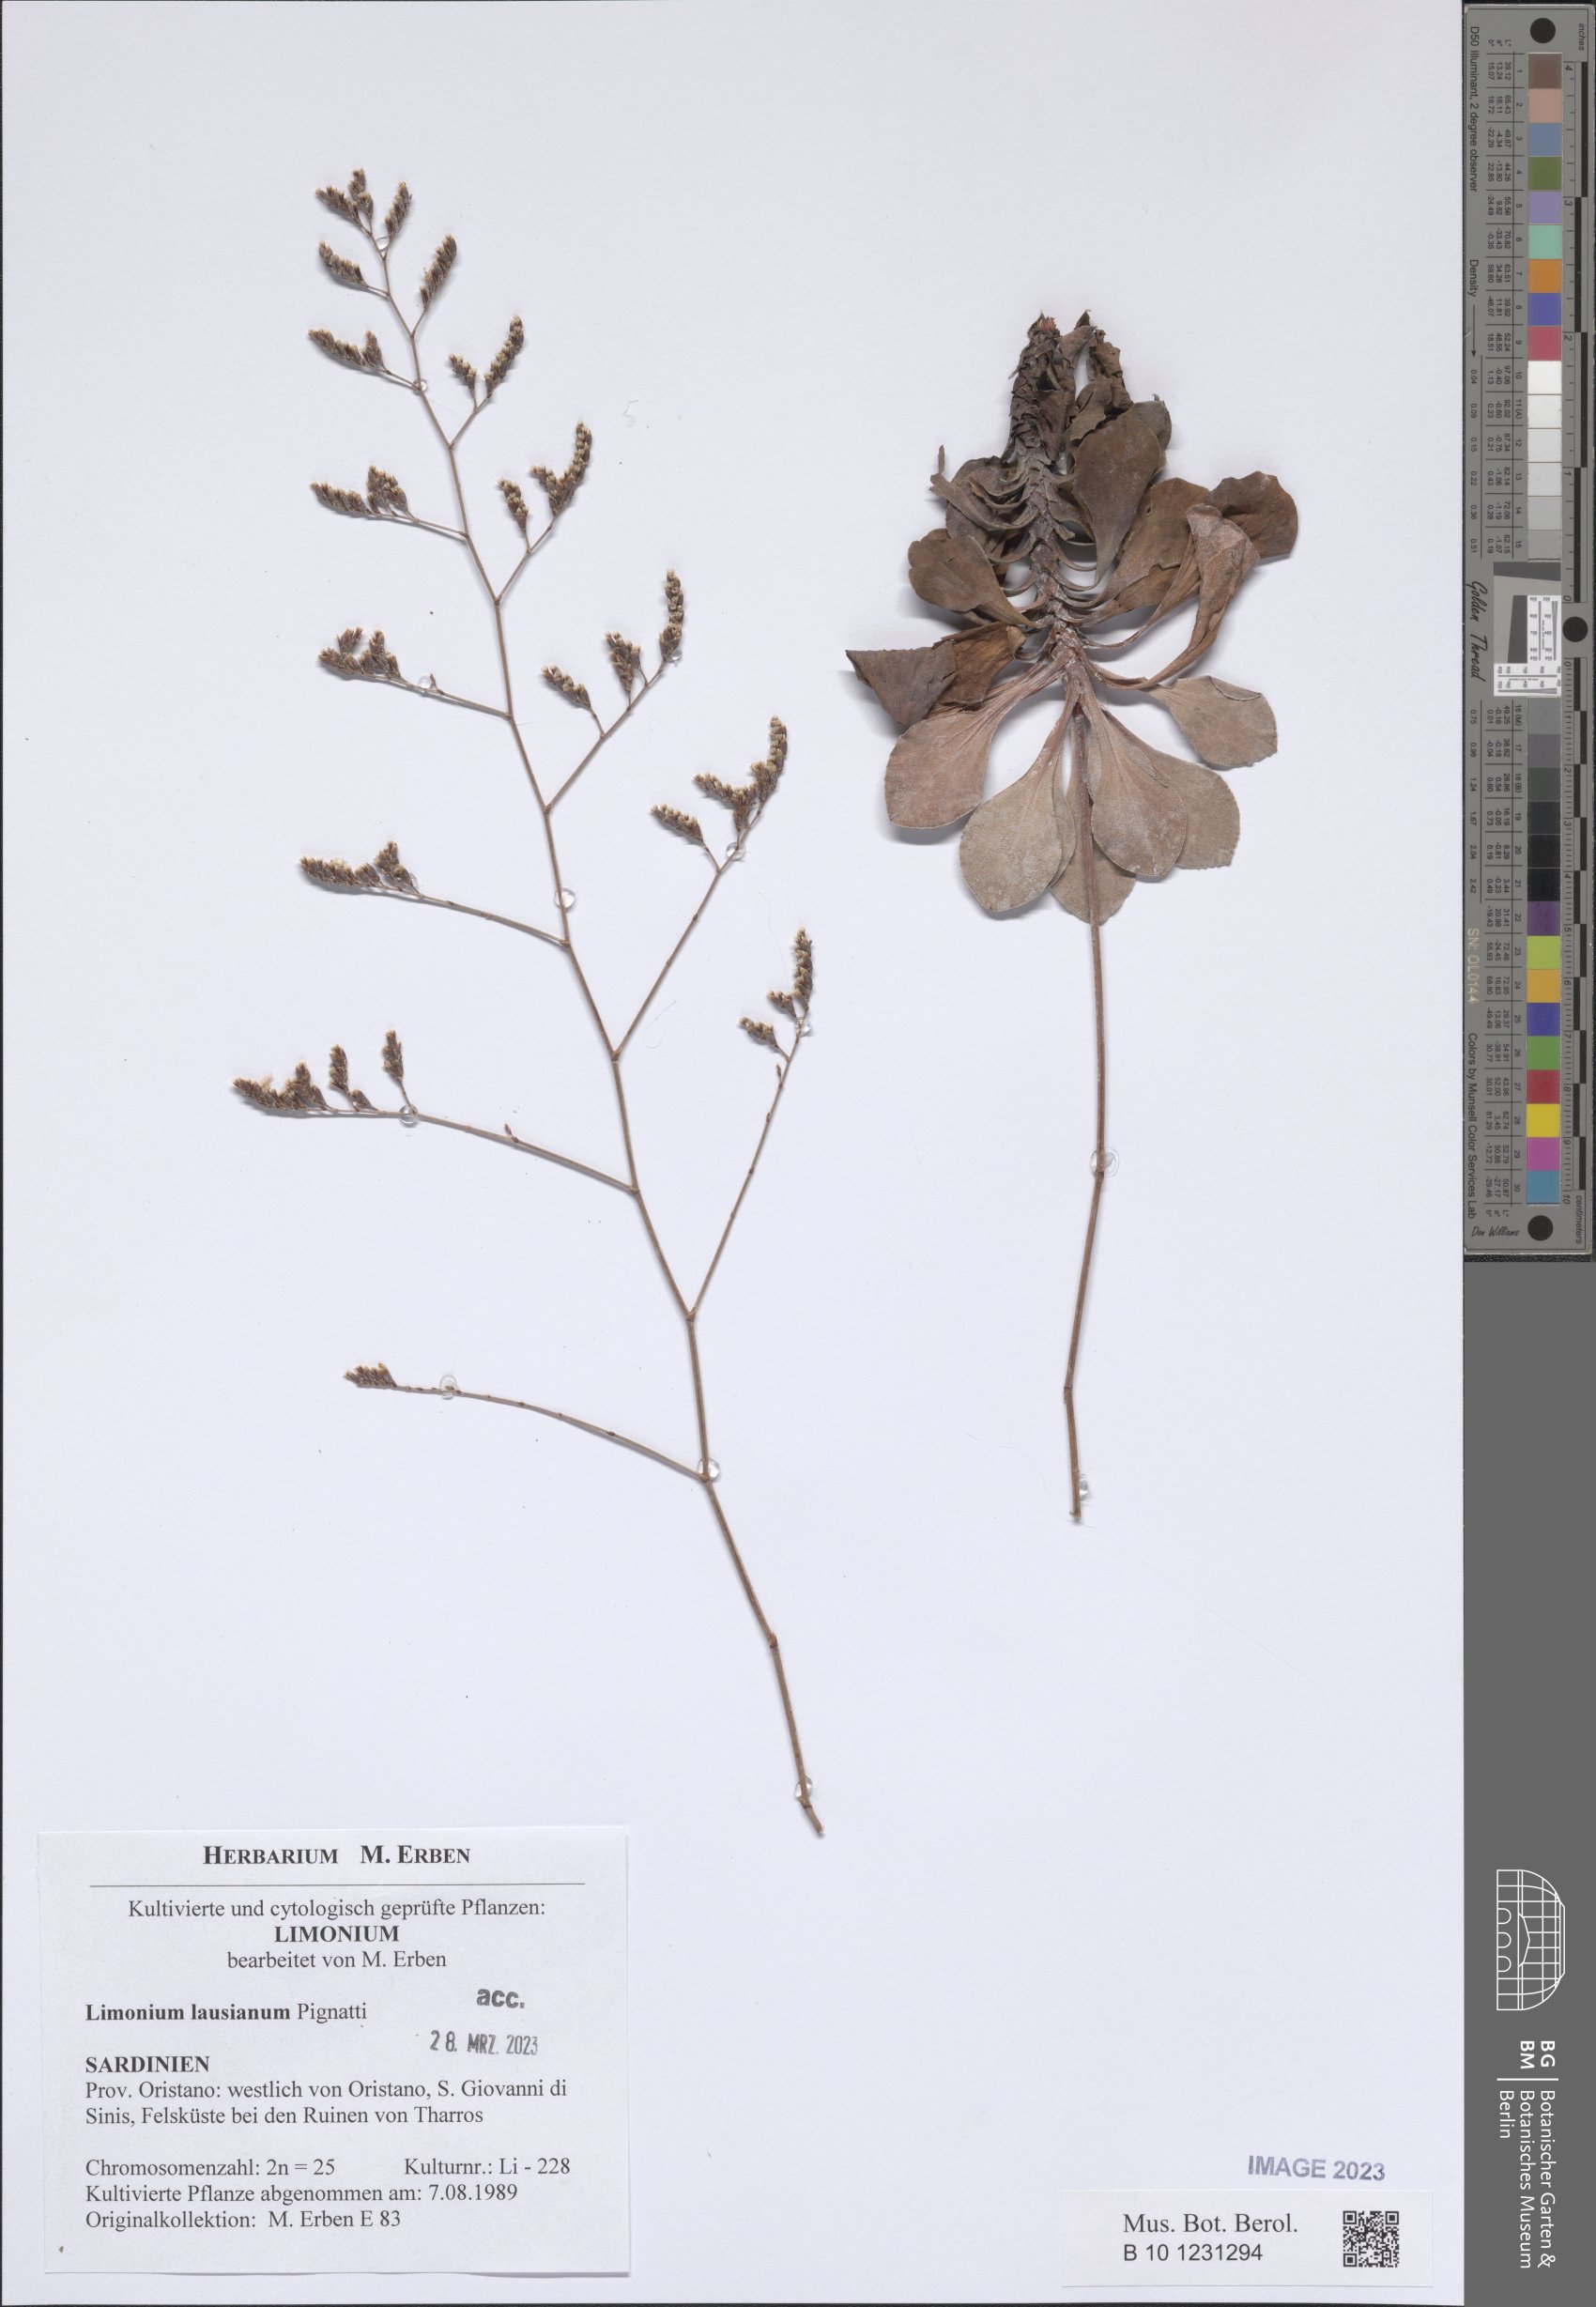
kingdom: Plantae
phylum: Tracheophyta
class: Magnoliopsida
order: Caryophyllales
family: Plumbaginaceae
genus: Limonium
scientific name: Limonium lausianum
